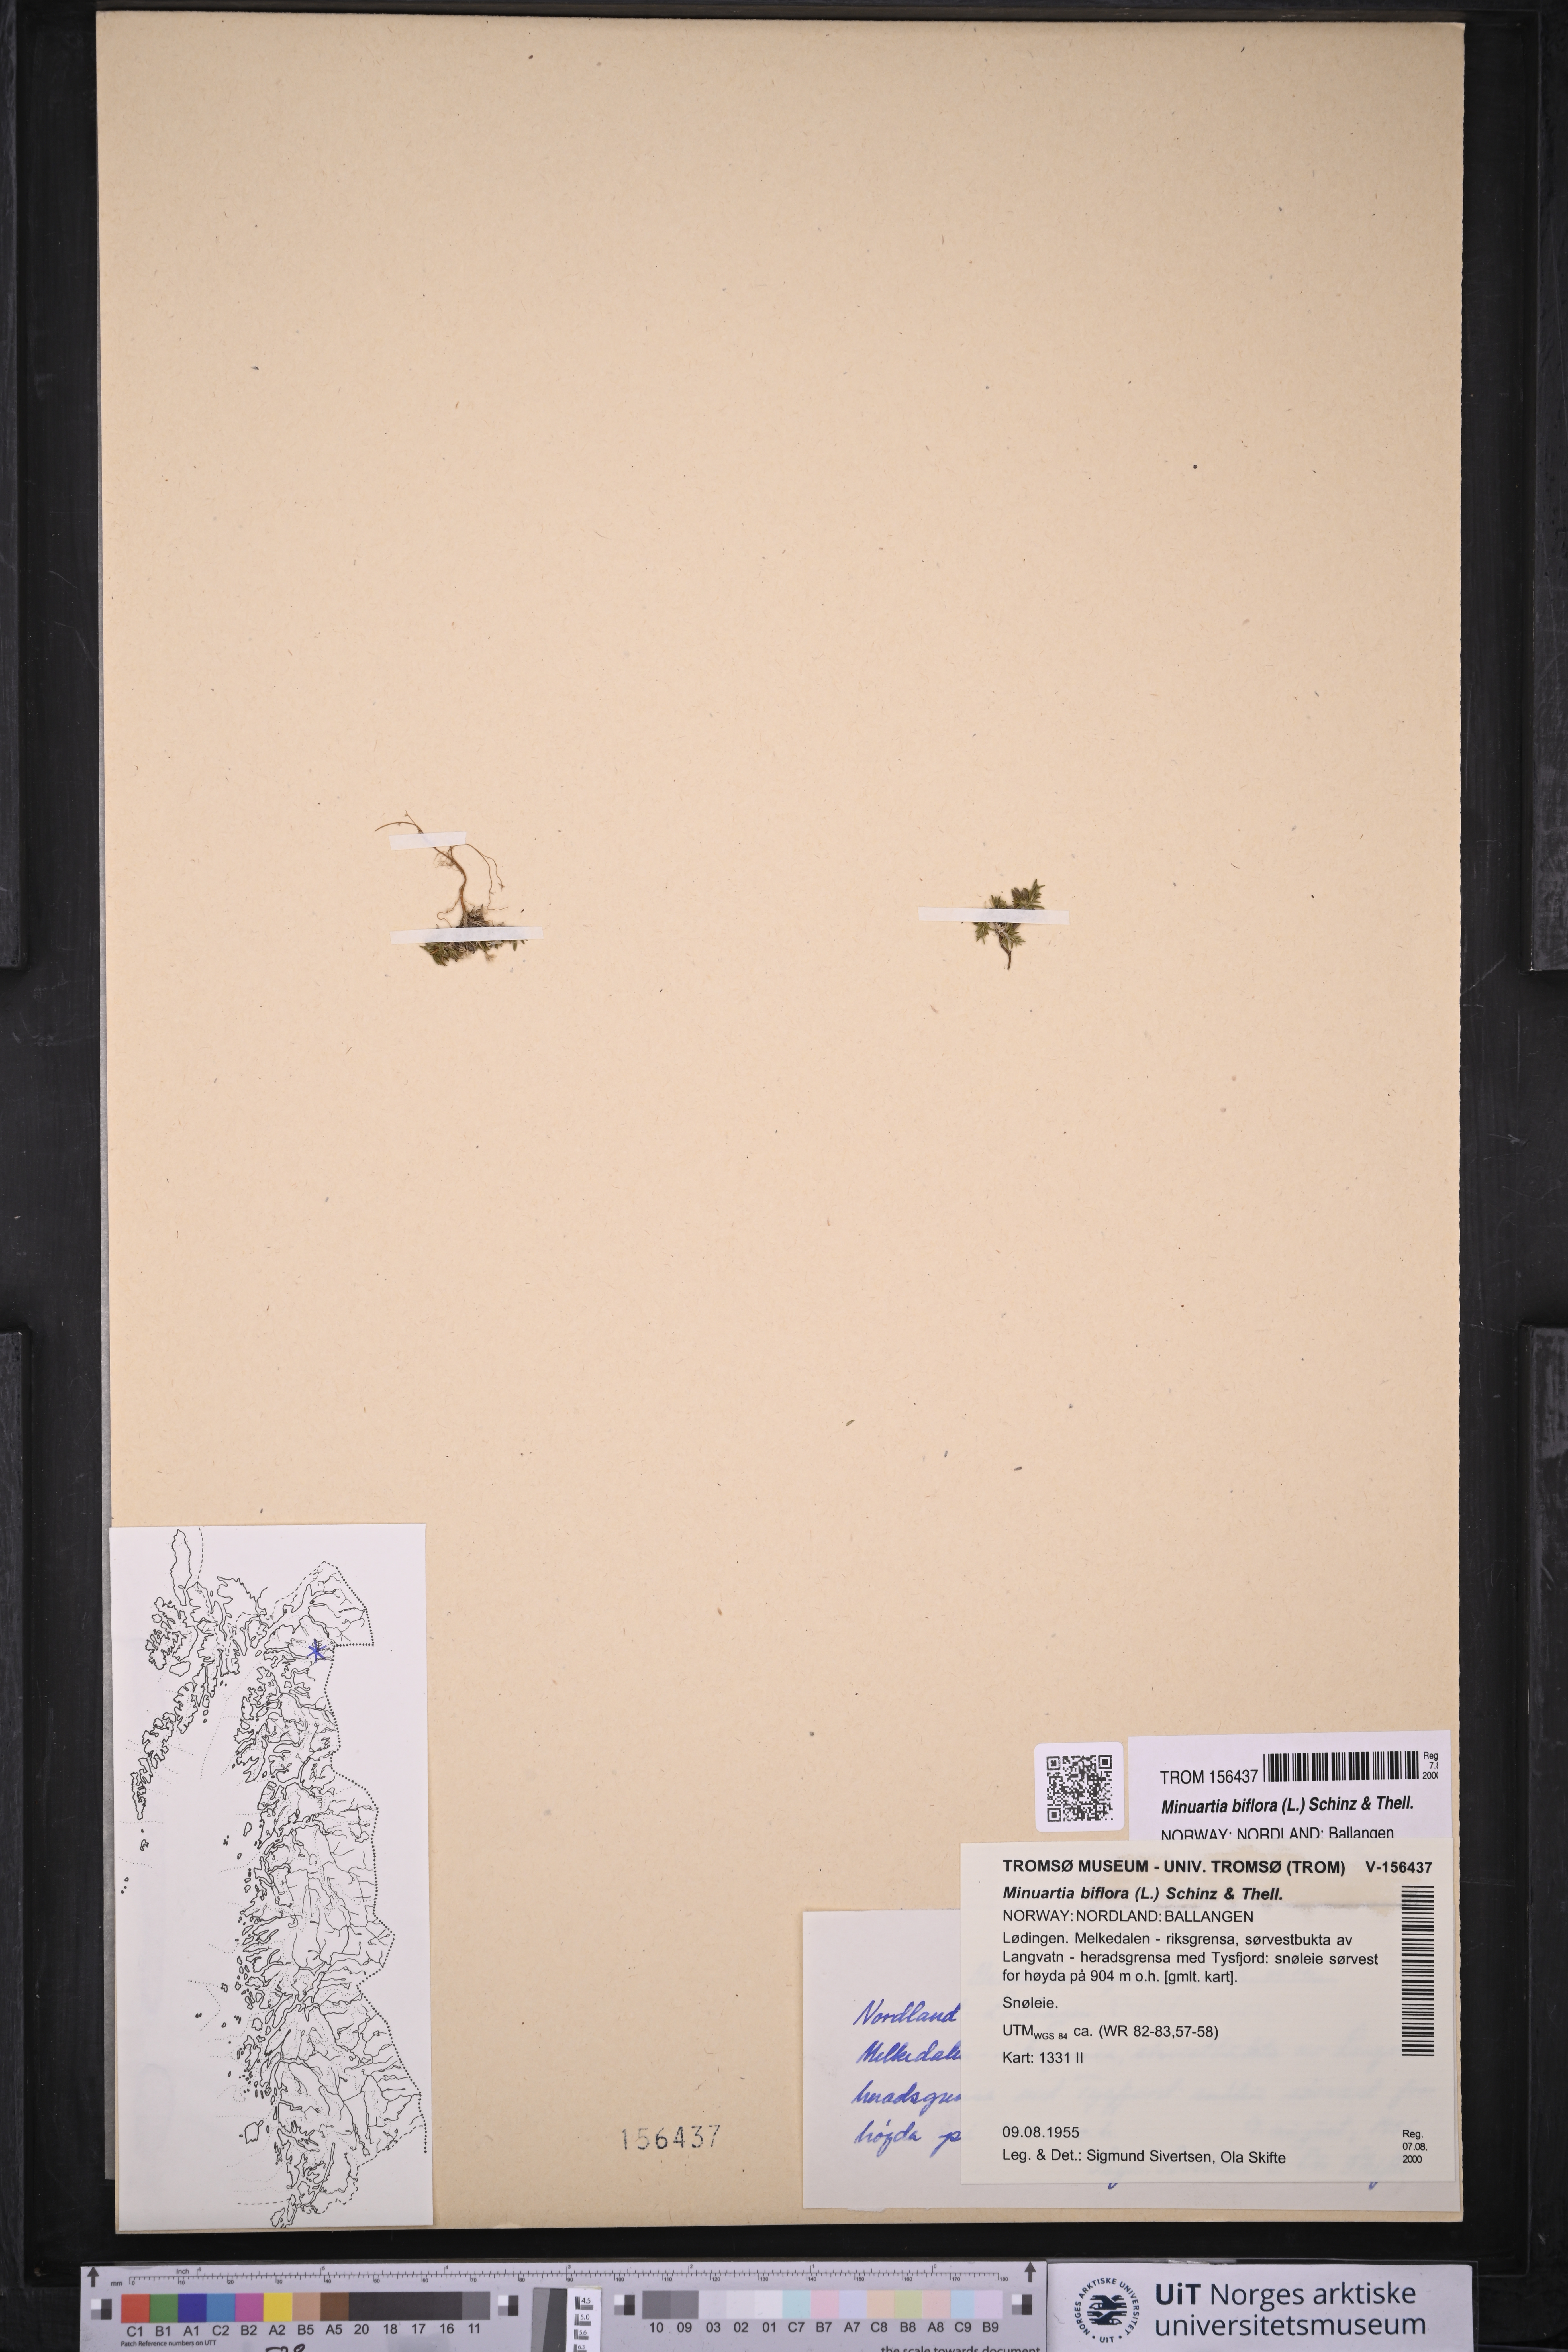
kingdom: Plantae
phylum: Tracheophyta
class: Magnoliopsida
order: Caryophyllales
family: Caryophyllaceae
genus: Cherleria
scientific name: Cherleria biflora
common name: Mountain sandwort
